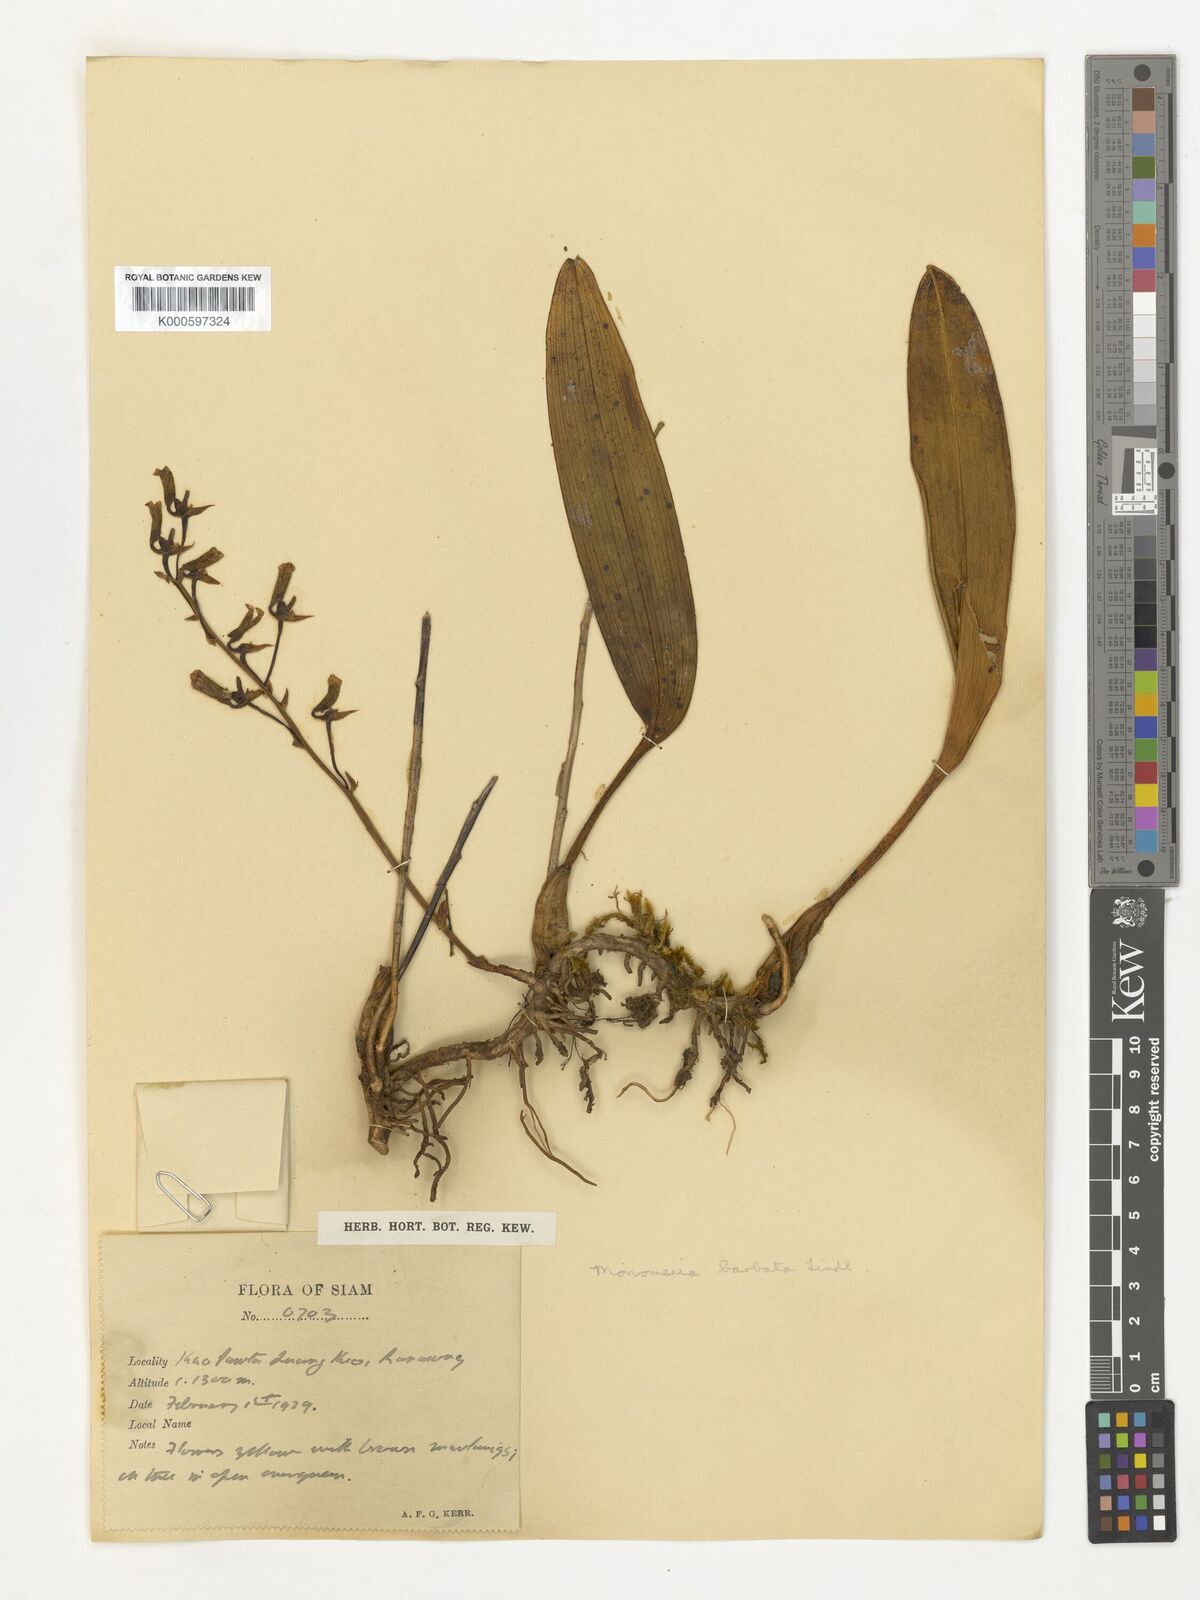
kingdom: Plantae
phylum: Tracheophyta
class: Liliopsida
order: Asparagales
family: Orchidaceae
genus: Bulbophyllum
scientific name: Bulbophyllum crabro
